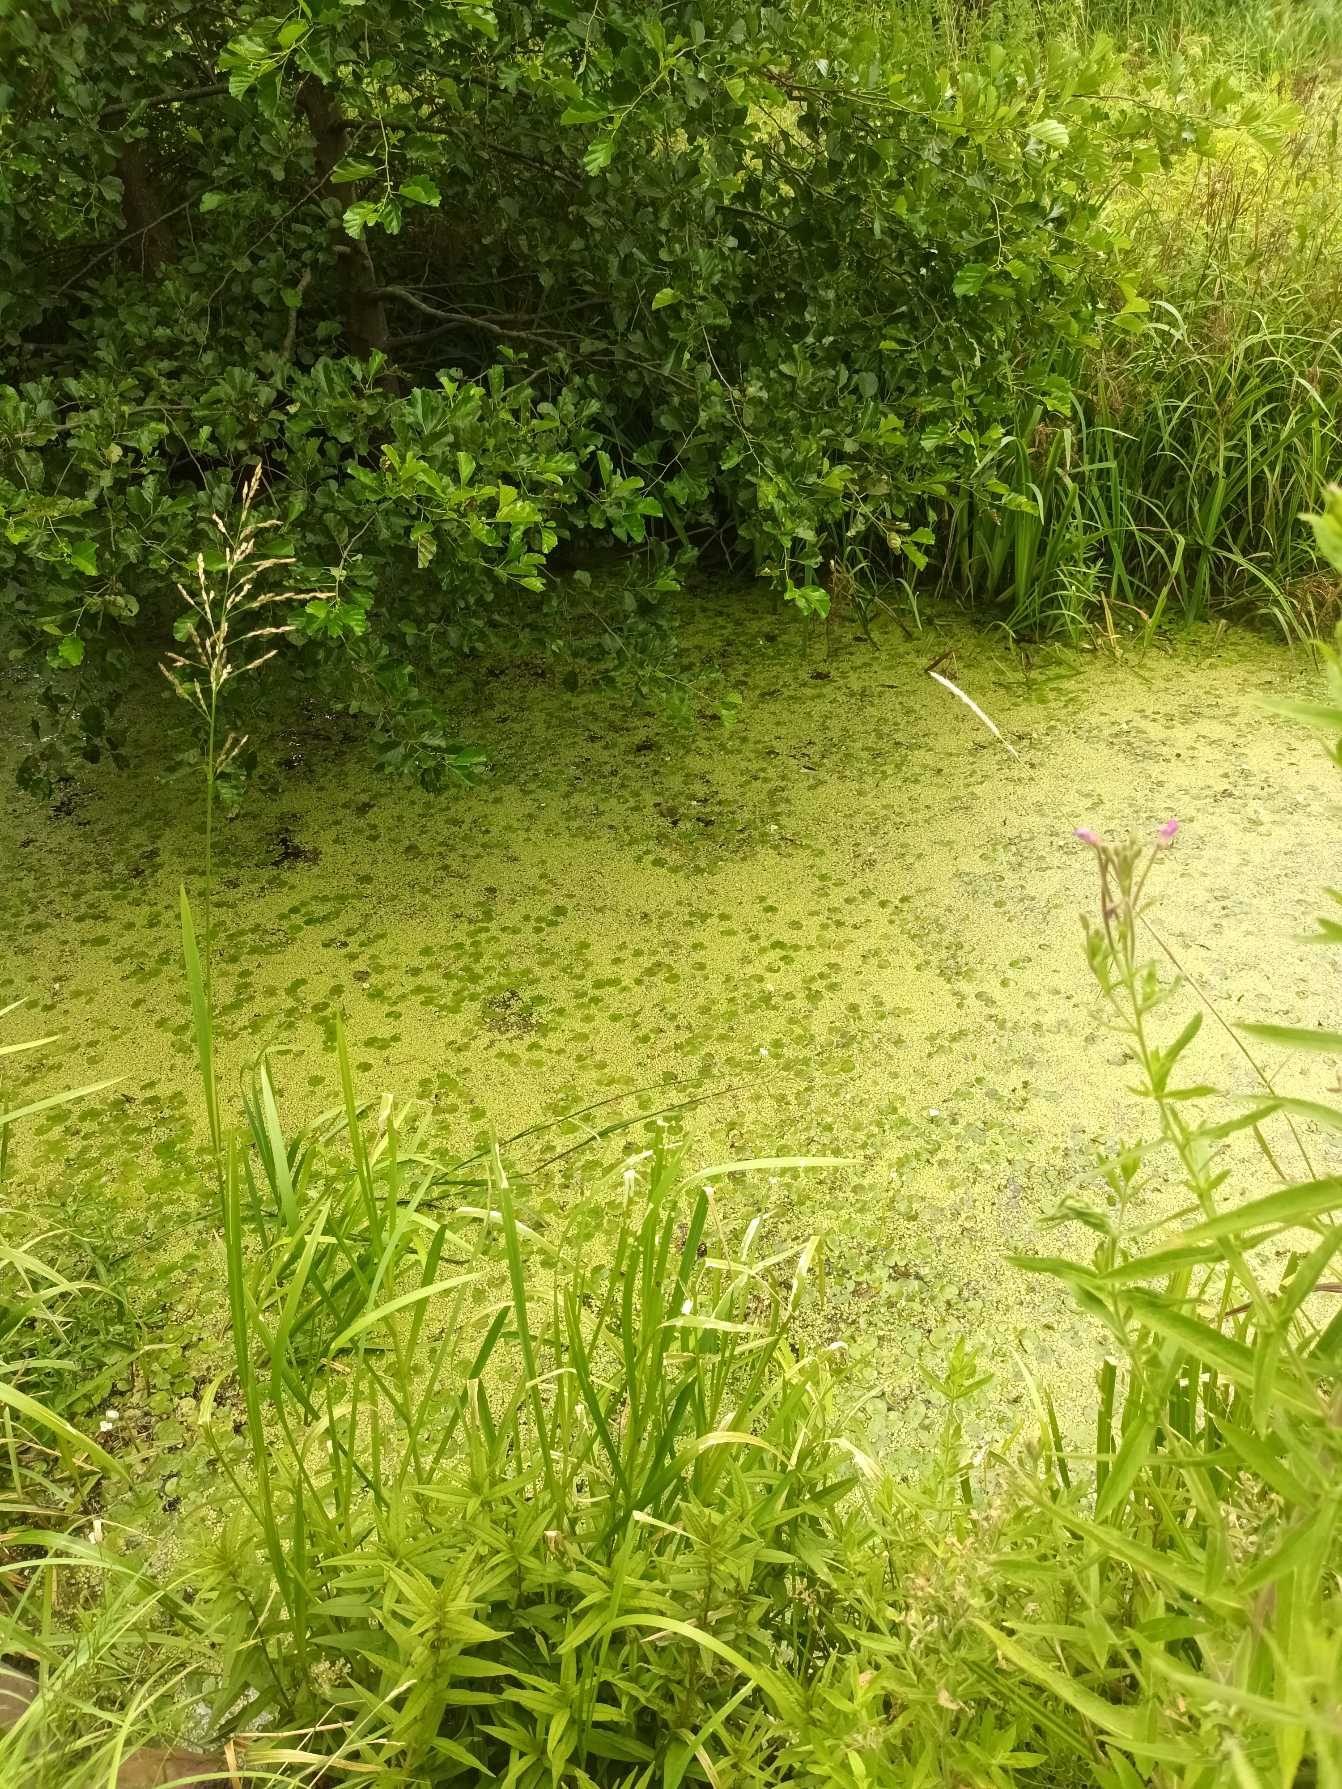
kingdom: Plantae
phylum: Tracheophyta
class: Liliopsida
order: Alismatales
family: Araceae
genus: Spirodela
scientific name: Spirodela polyrhiza
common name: Stor andemad
